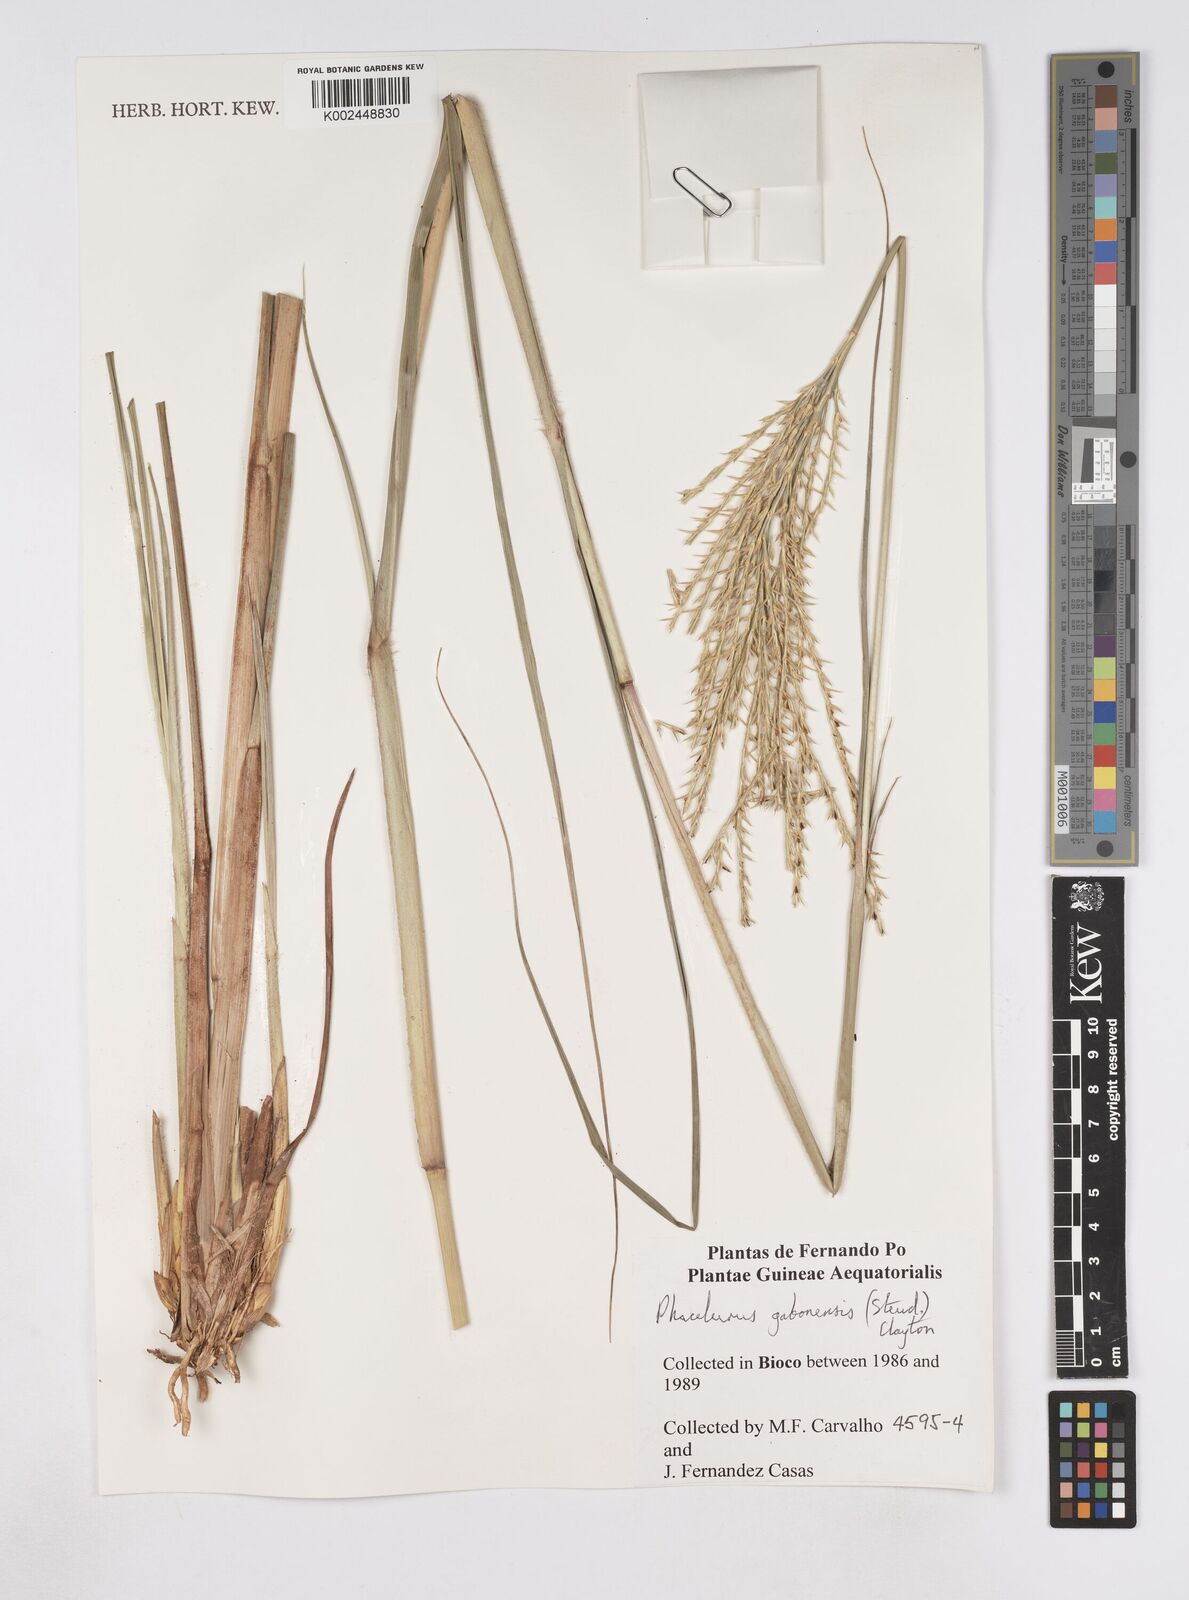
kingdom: Plantae
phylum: Tracheophyta
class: Liliopsida
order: Poales
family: Poaceae
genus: Phacelurus
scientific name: Phacelurus gabonensis
